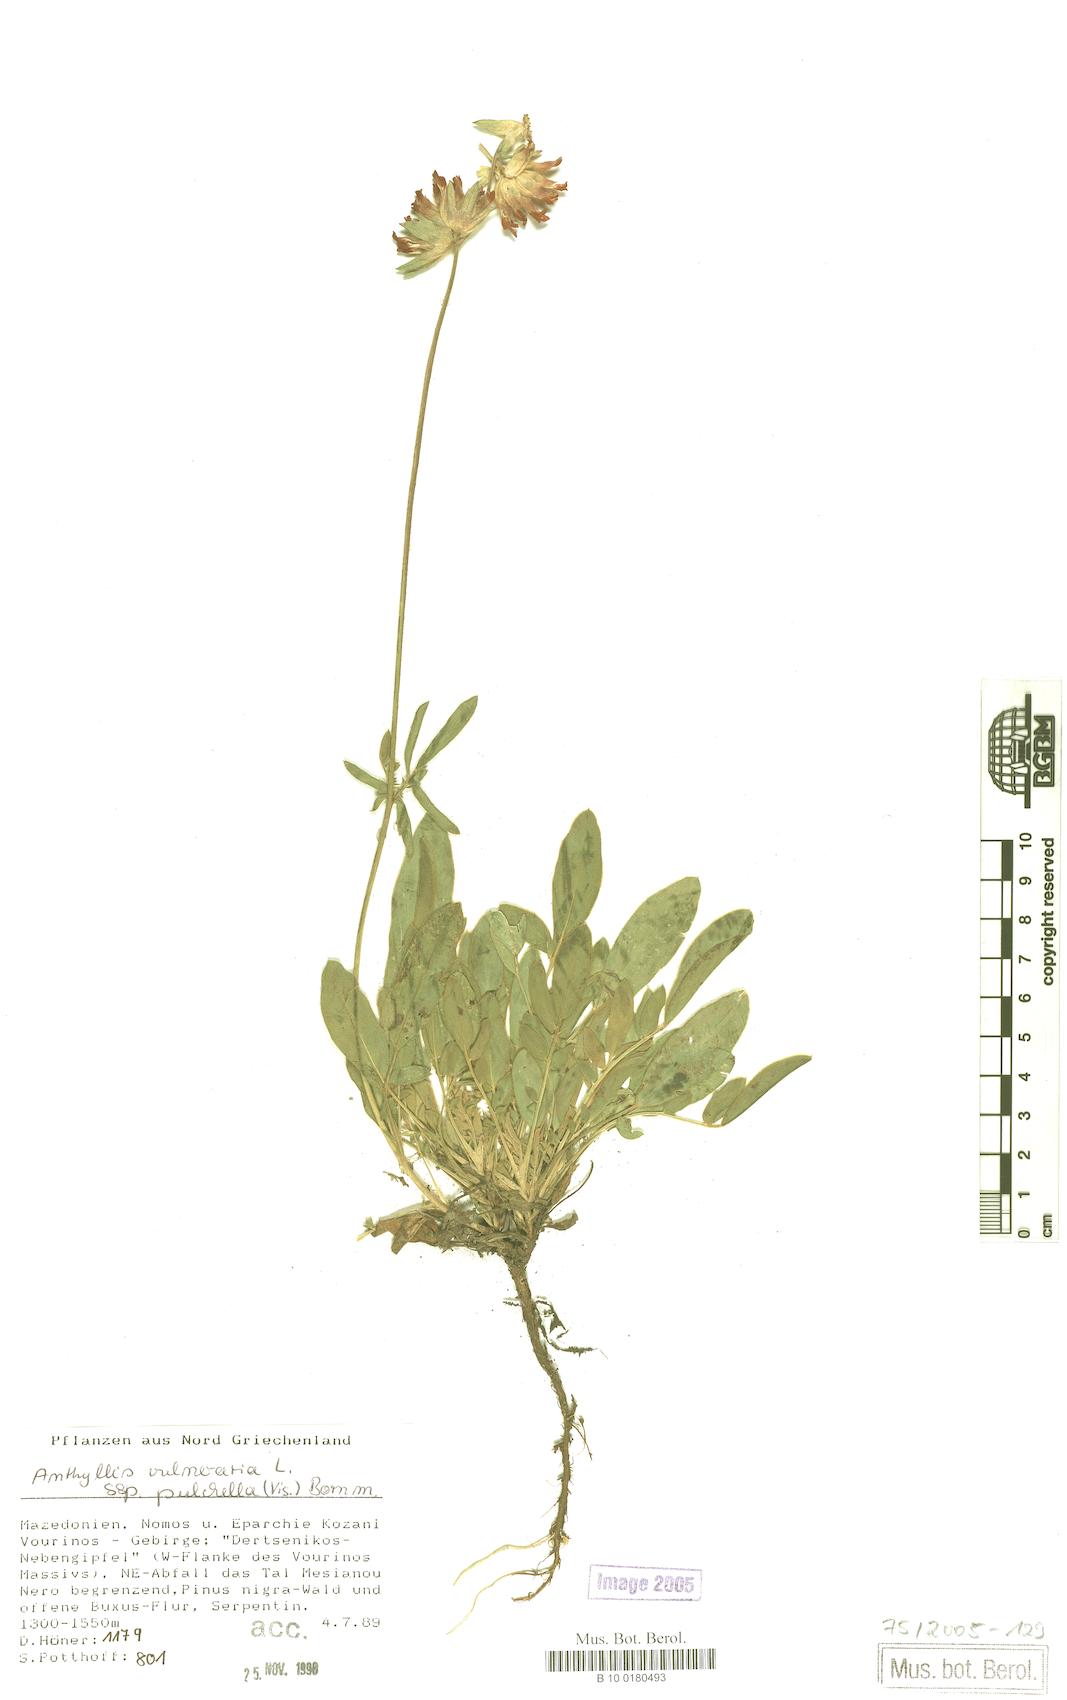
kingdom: Plantae
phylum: Tracheophyta
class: Magnoliopsida
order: Fabales
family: Fabaceae
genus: Anthyllis
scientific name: Anthyllis vulneraria
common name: Kidney vetch
